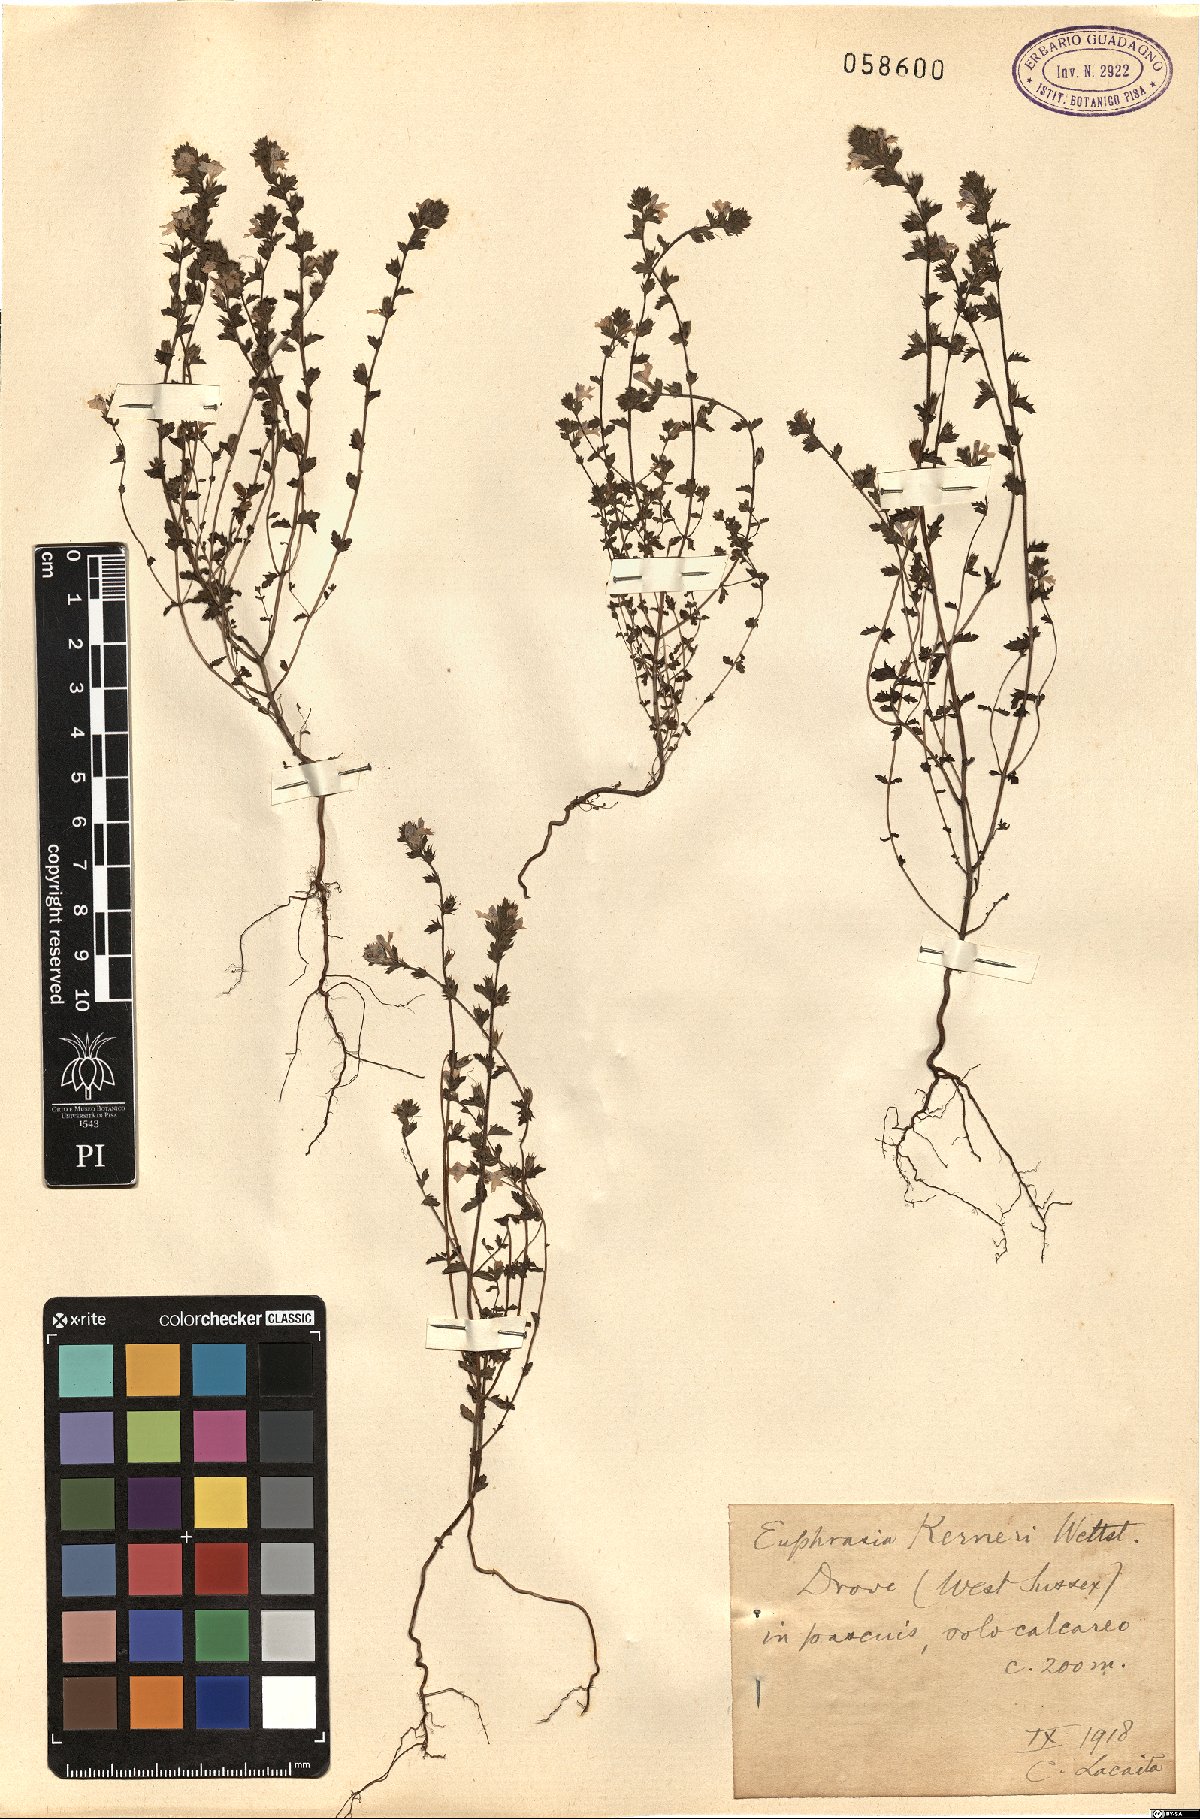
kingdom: Plantae
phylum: Tracheophyta
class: Magnoliopsida
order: Lamiales
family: Orobanchaceae
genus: Euphrasia
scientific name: Euphrasia kerneri
